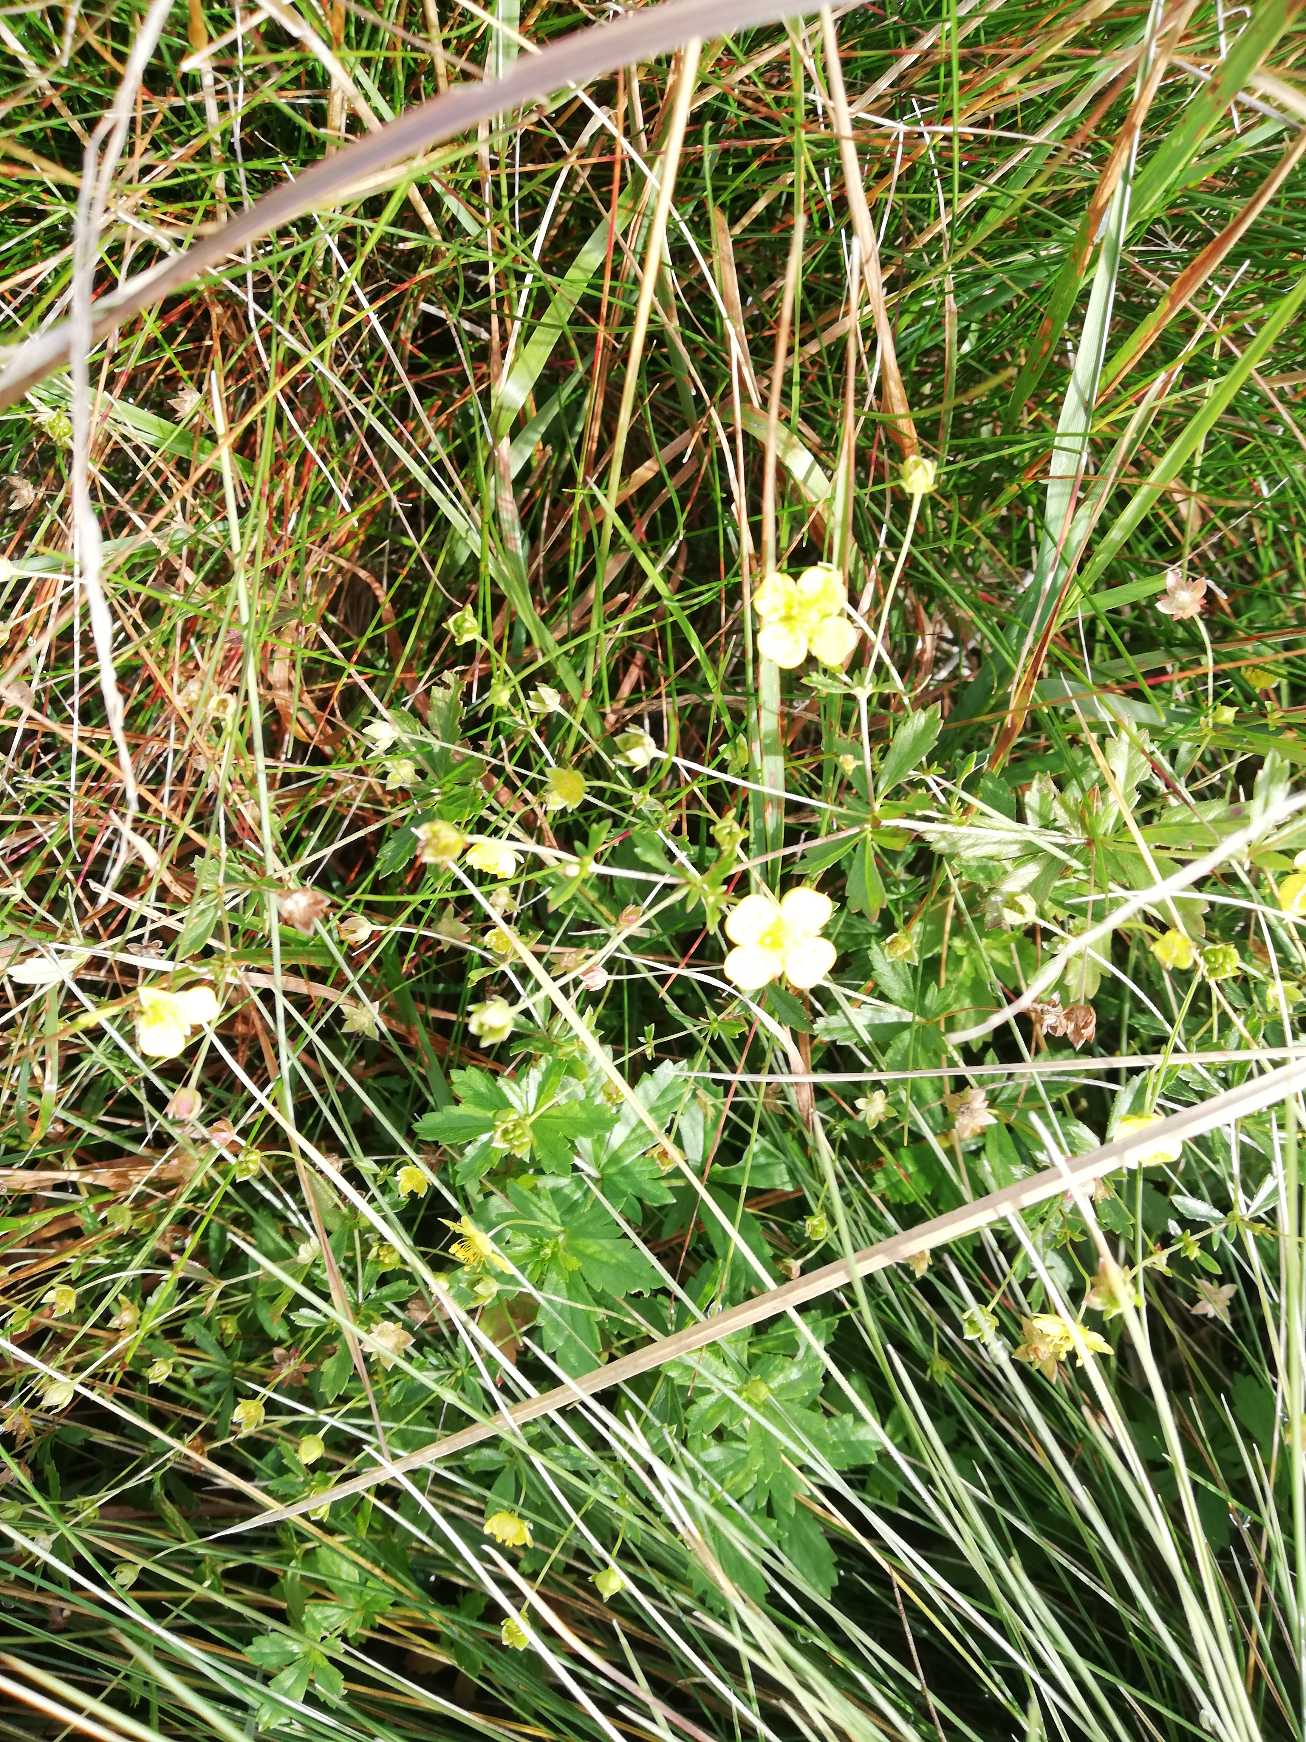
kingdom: Plantae
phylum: Tracheophyta
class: Magnoliopsida
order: Rosales
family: Rosaceae
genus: Potentilla
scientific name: Potentilla erecta
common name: Tormentil
